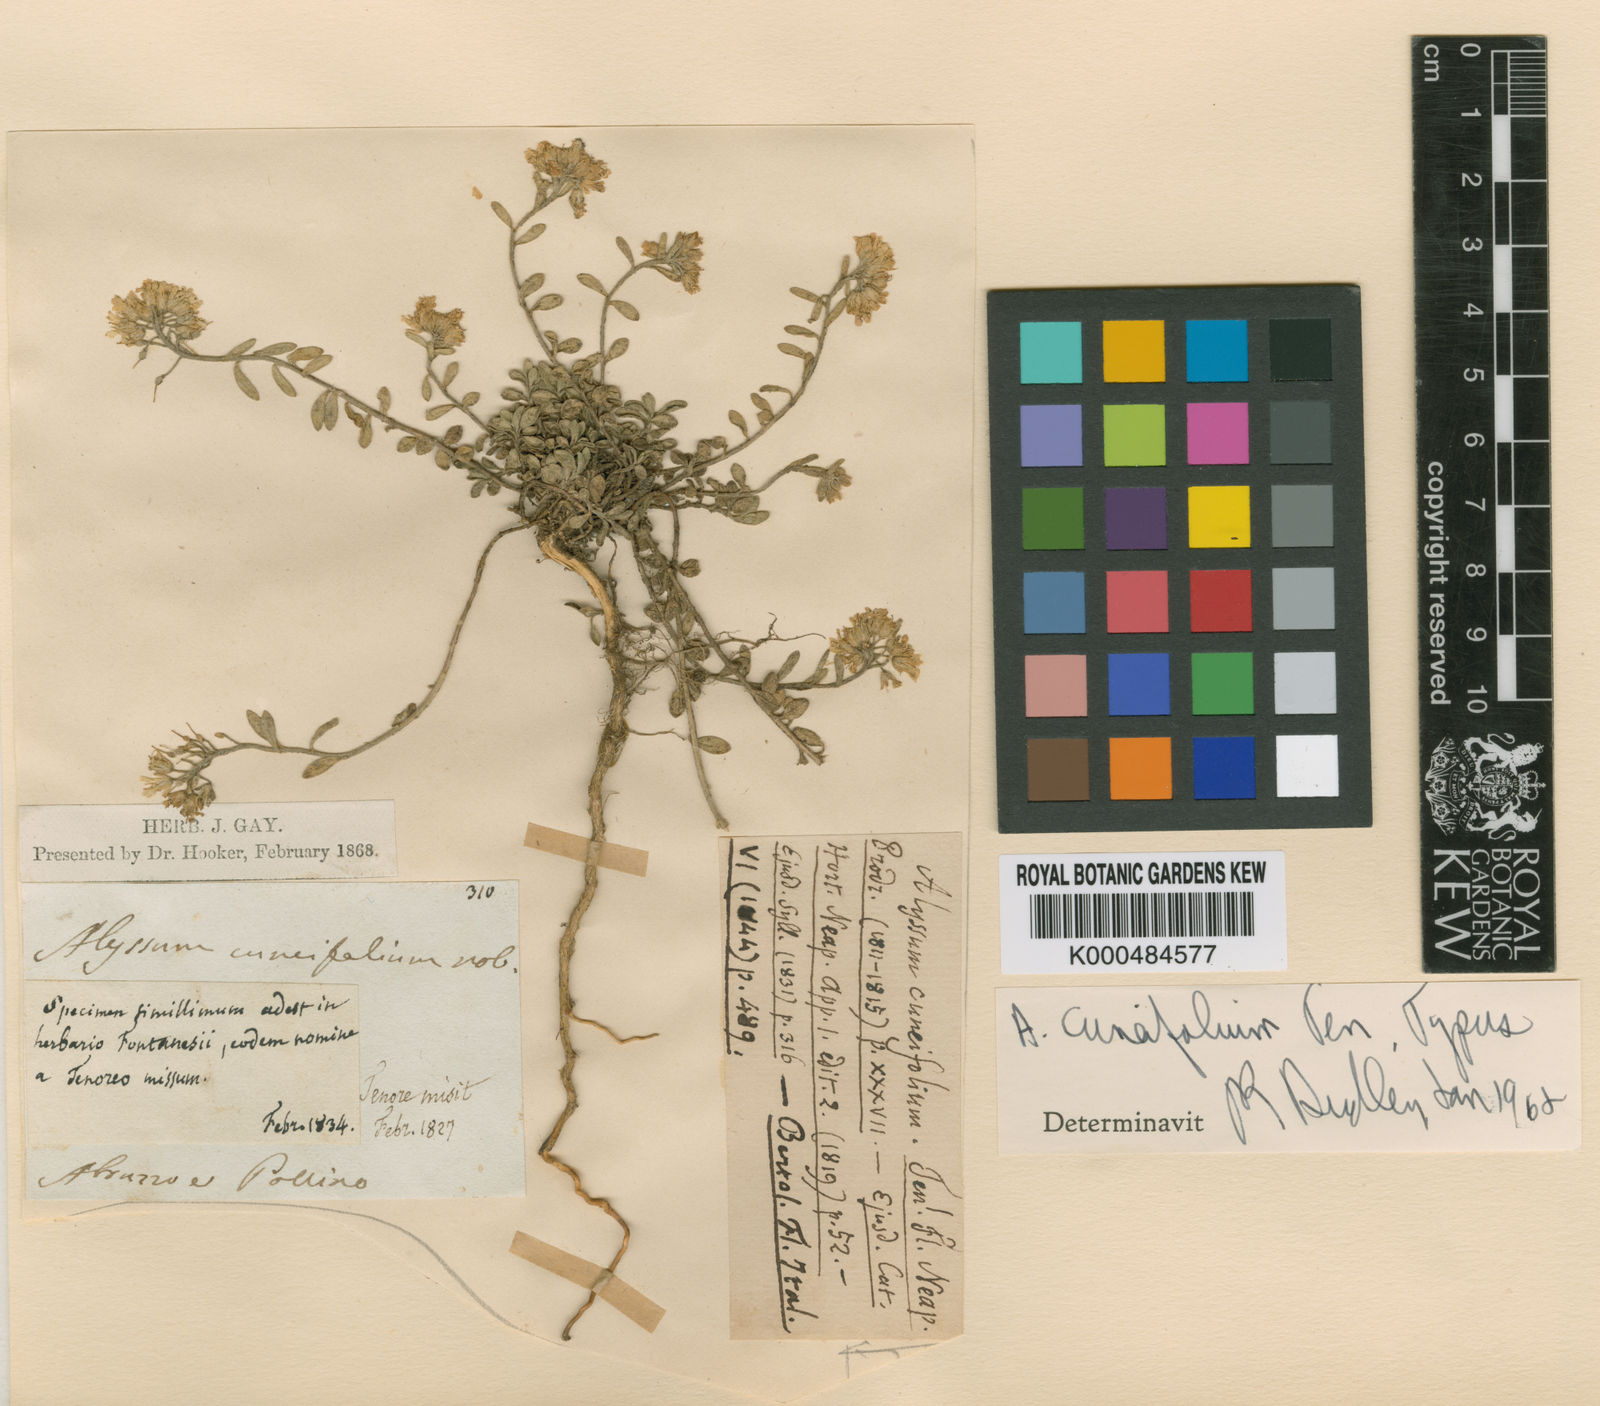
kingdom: Plantae
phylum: Tracheophyta
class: Magnoliopsida
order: Brassicales
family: Brassicaceae
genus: Alyssum
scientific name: Alyssum cuneifolium
